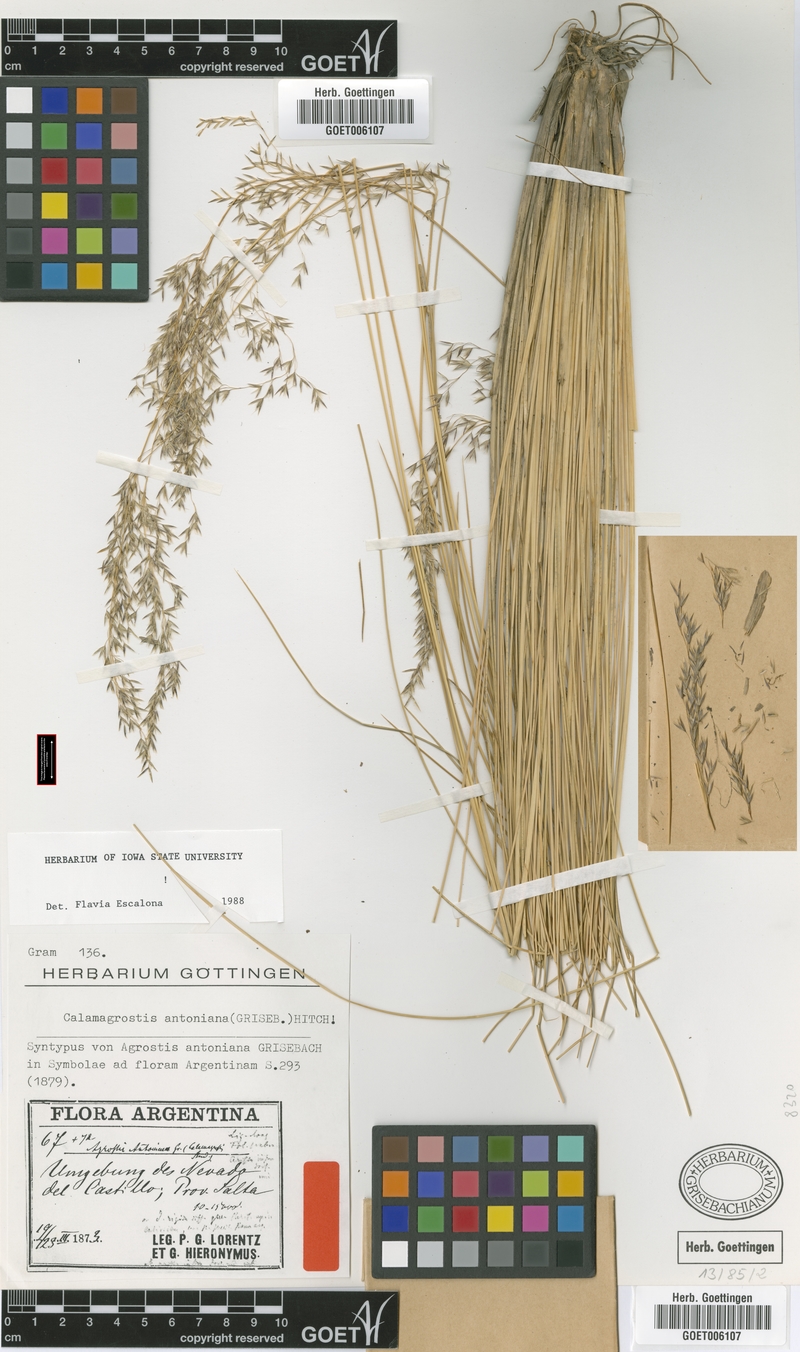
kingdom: Plantae
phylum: Tracheophyta
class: Liliopsida
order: Poales
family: Poaceae
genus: Cinnagrostis
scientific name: Cinnagrostis rigida
